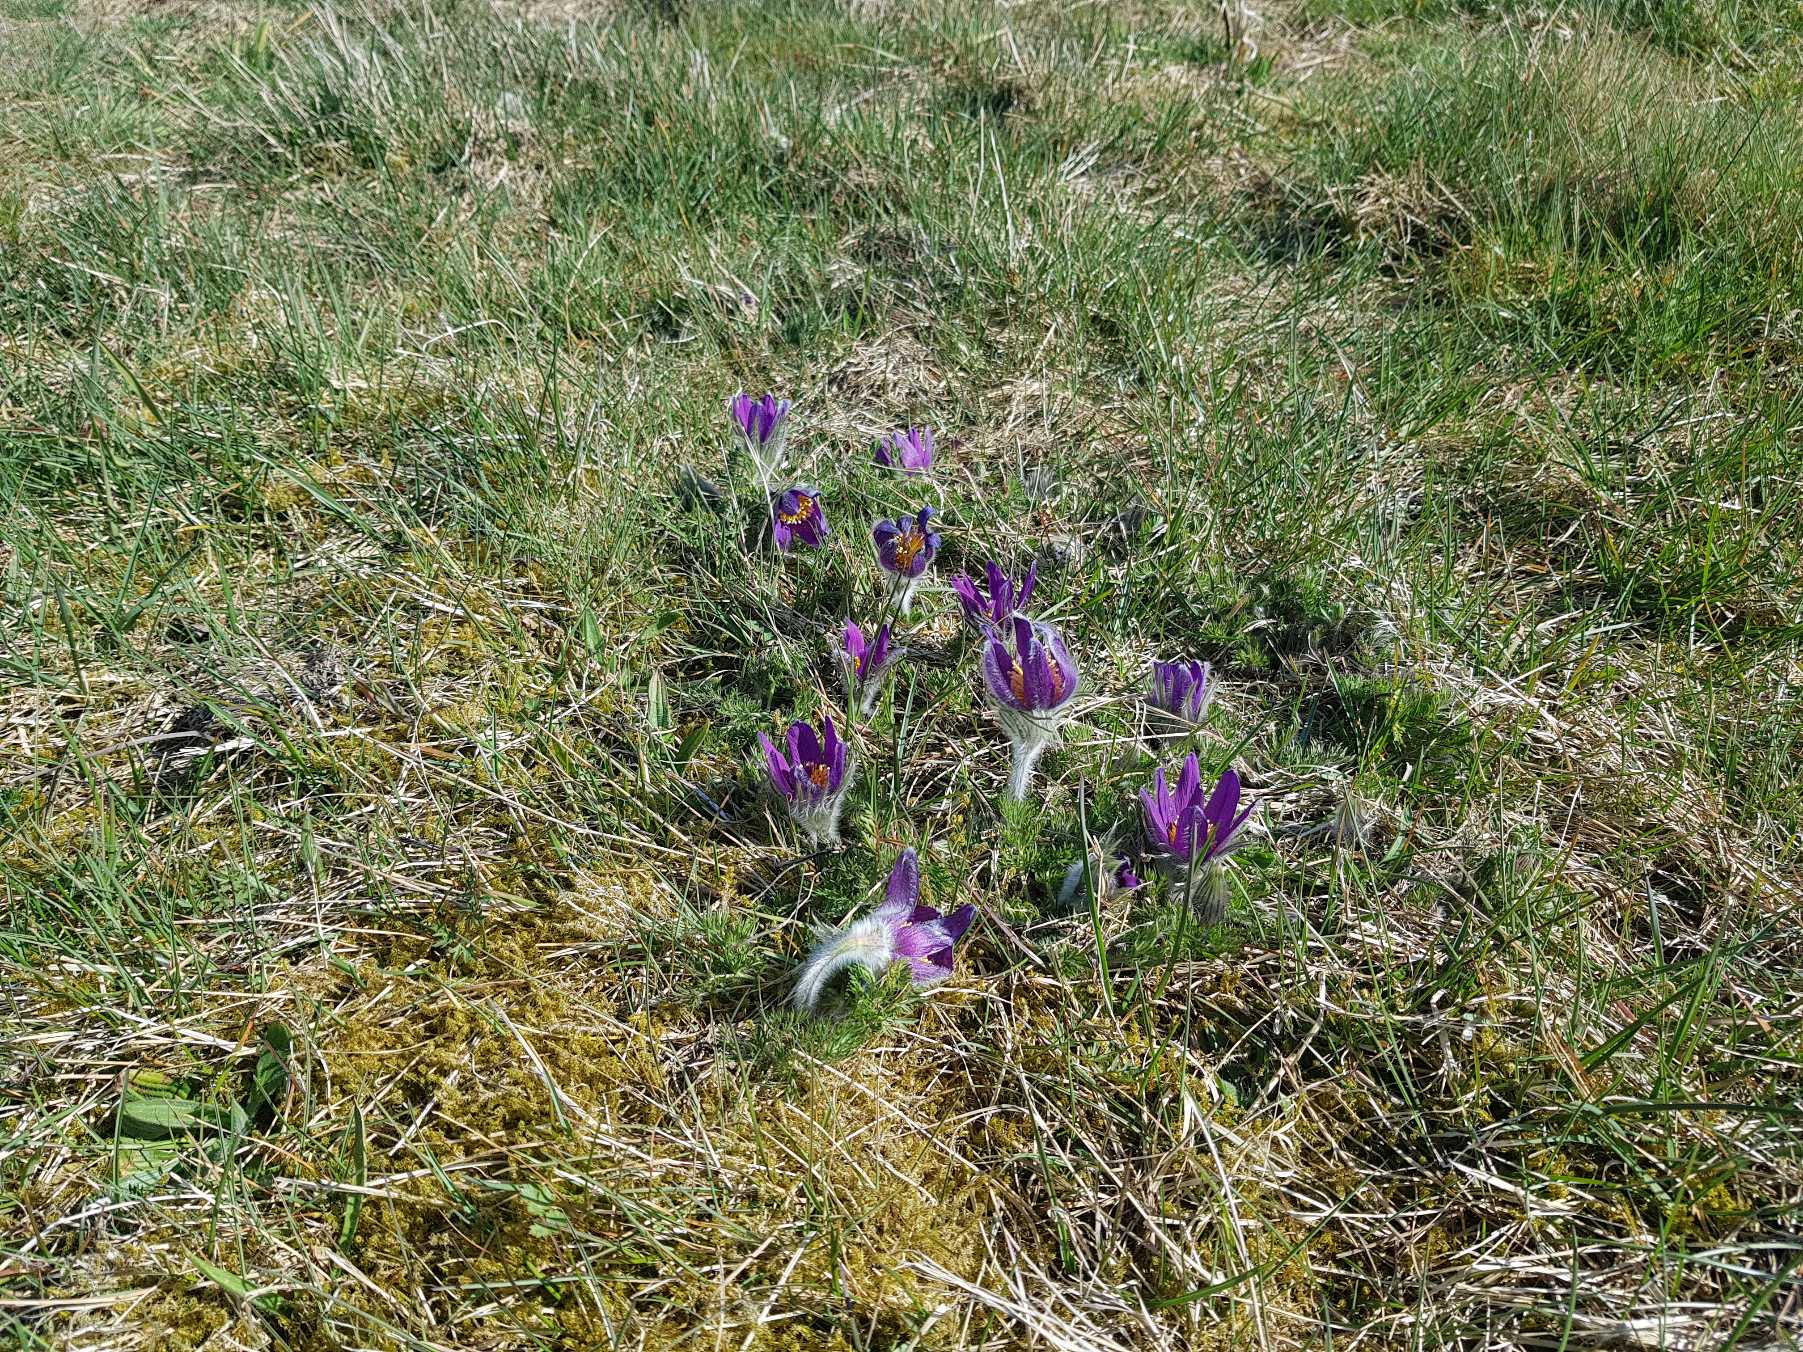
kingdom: Plantae
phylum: Tracheophyta
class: Magnoliopsida
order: Ranunculales
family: Ranunculaceae
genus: Pulsatilla
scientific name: Pulsatilla vulgaris
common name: Opret kobjælde
